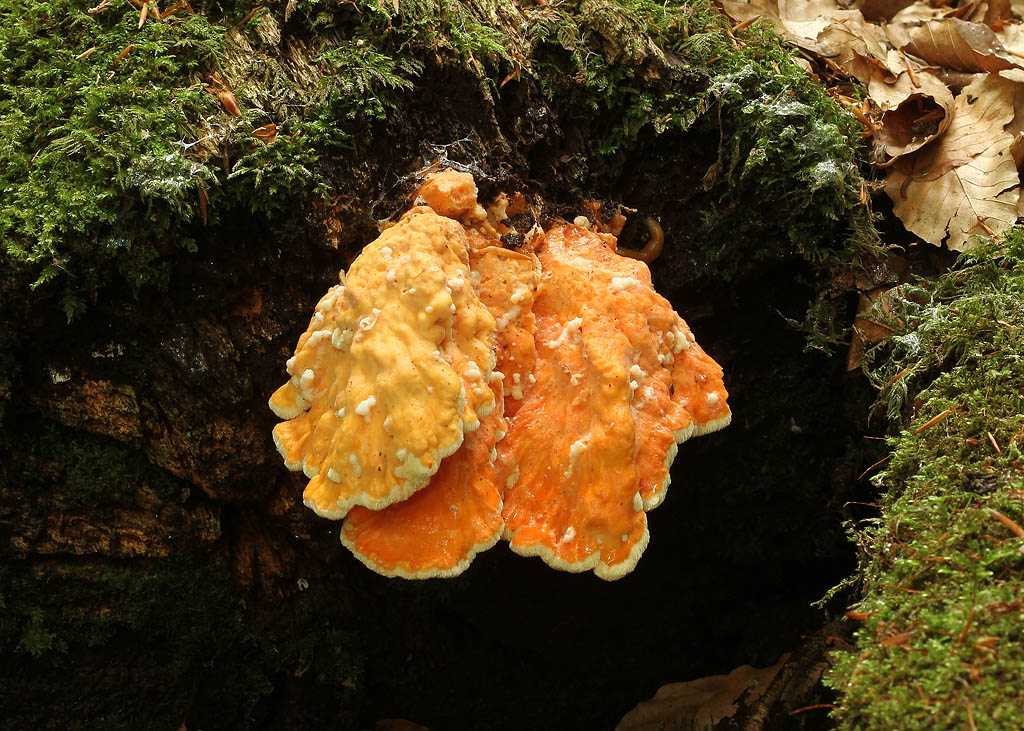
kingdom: Fungi
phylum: Basidiomycota
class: Agaricomycetes
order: Polyporales
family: Laetiporaceae
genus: Laetiporus
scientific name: Laetiporus sulphureus
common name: svovlporesvamp
